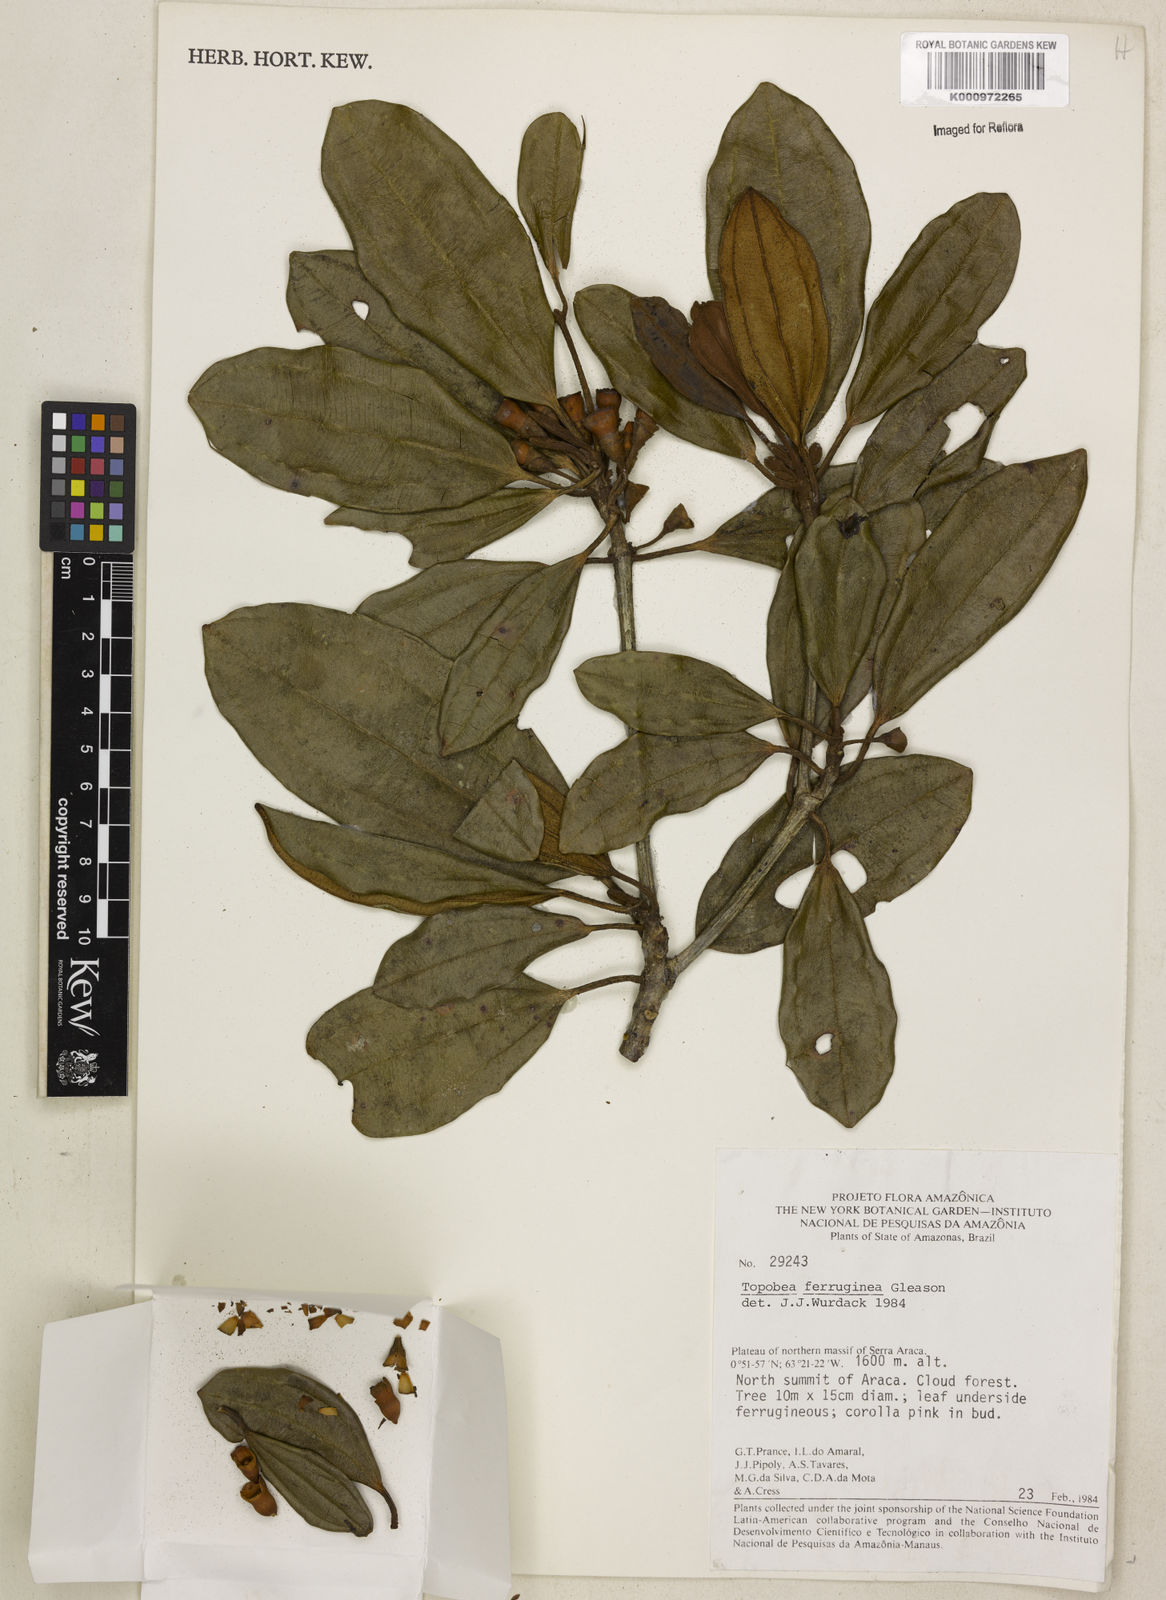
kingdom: Plantae
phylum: Tracheophyta
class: Magnoliopsida
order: Myrtales
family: Melastomataceae
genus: Blakea
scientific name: Blakea ferruginea
